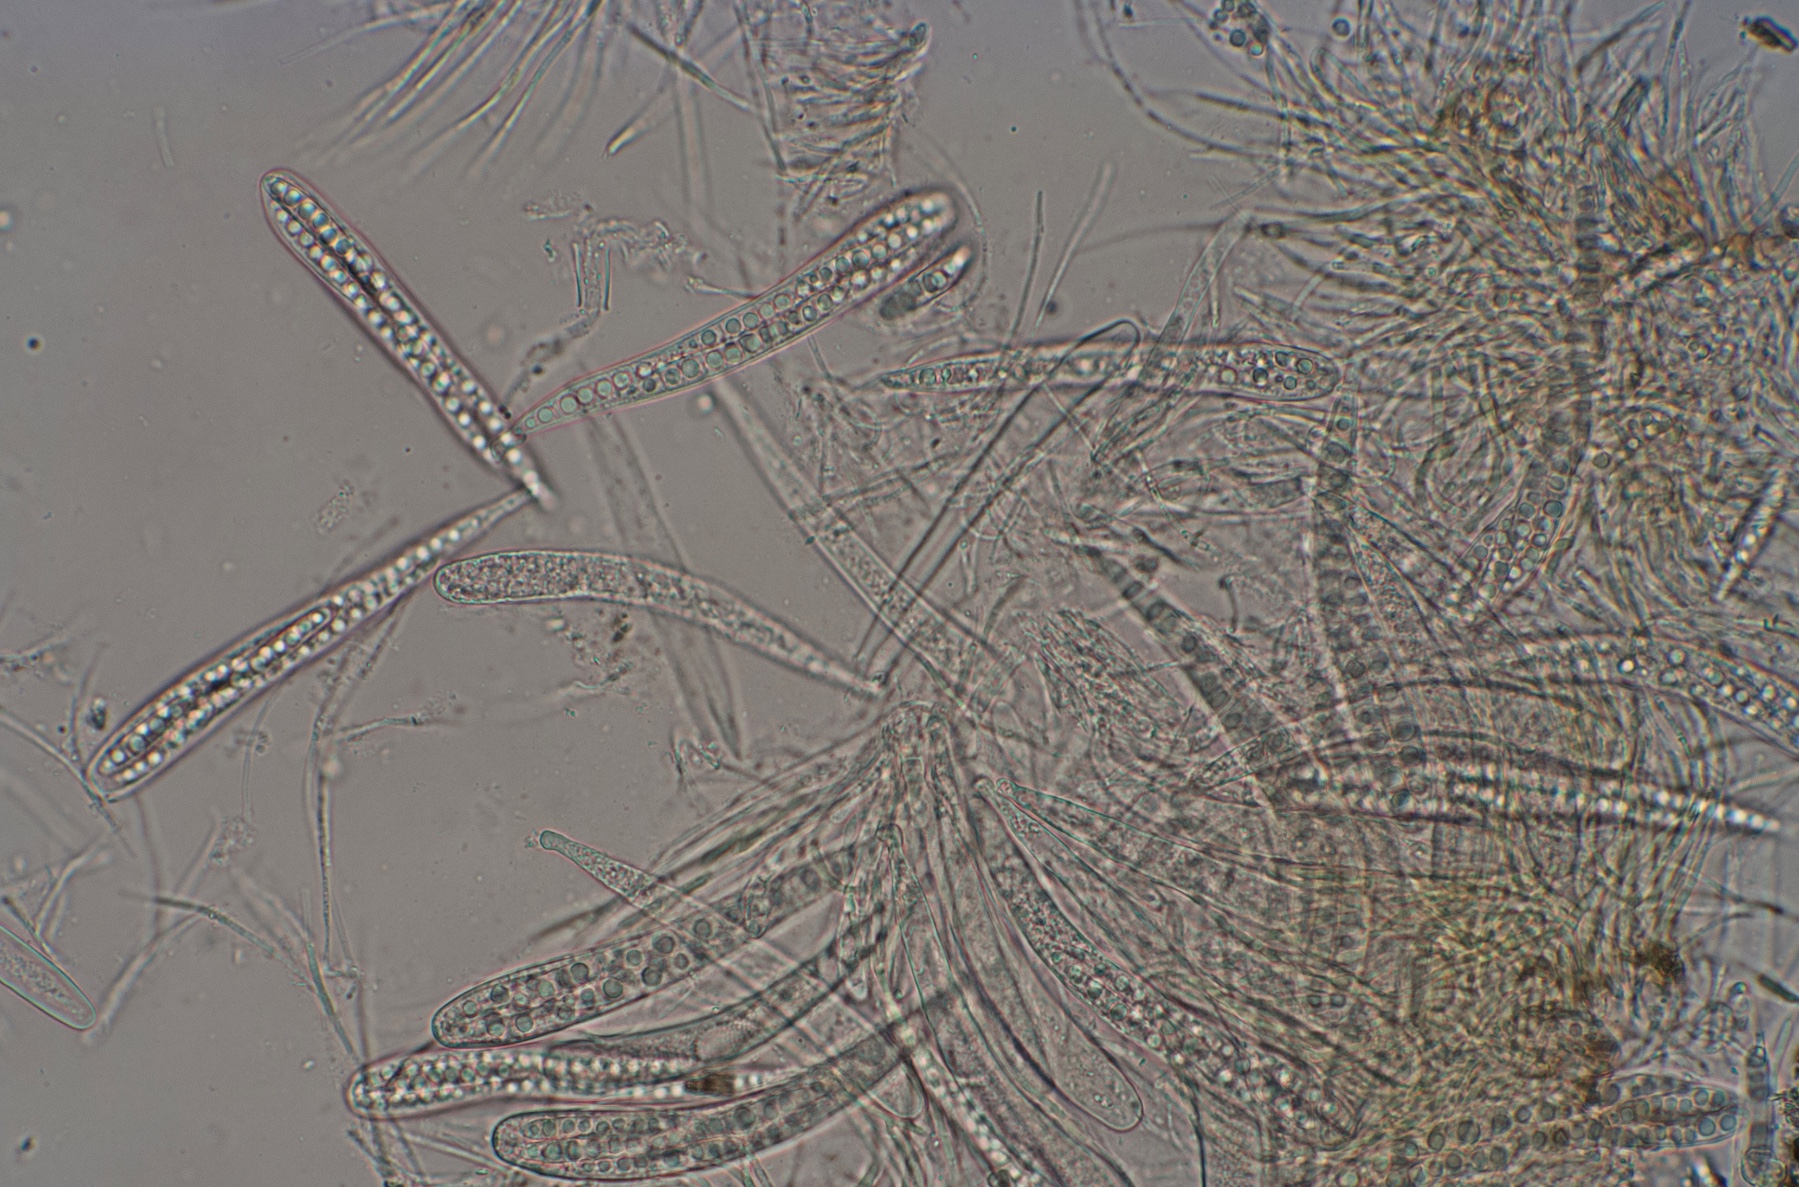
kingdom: Fungi
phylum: Ascomycota
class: Leotiomycetes
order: Helotiales
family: Helotiaceae
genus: Durella
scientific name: Durella connivens
